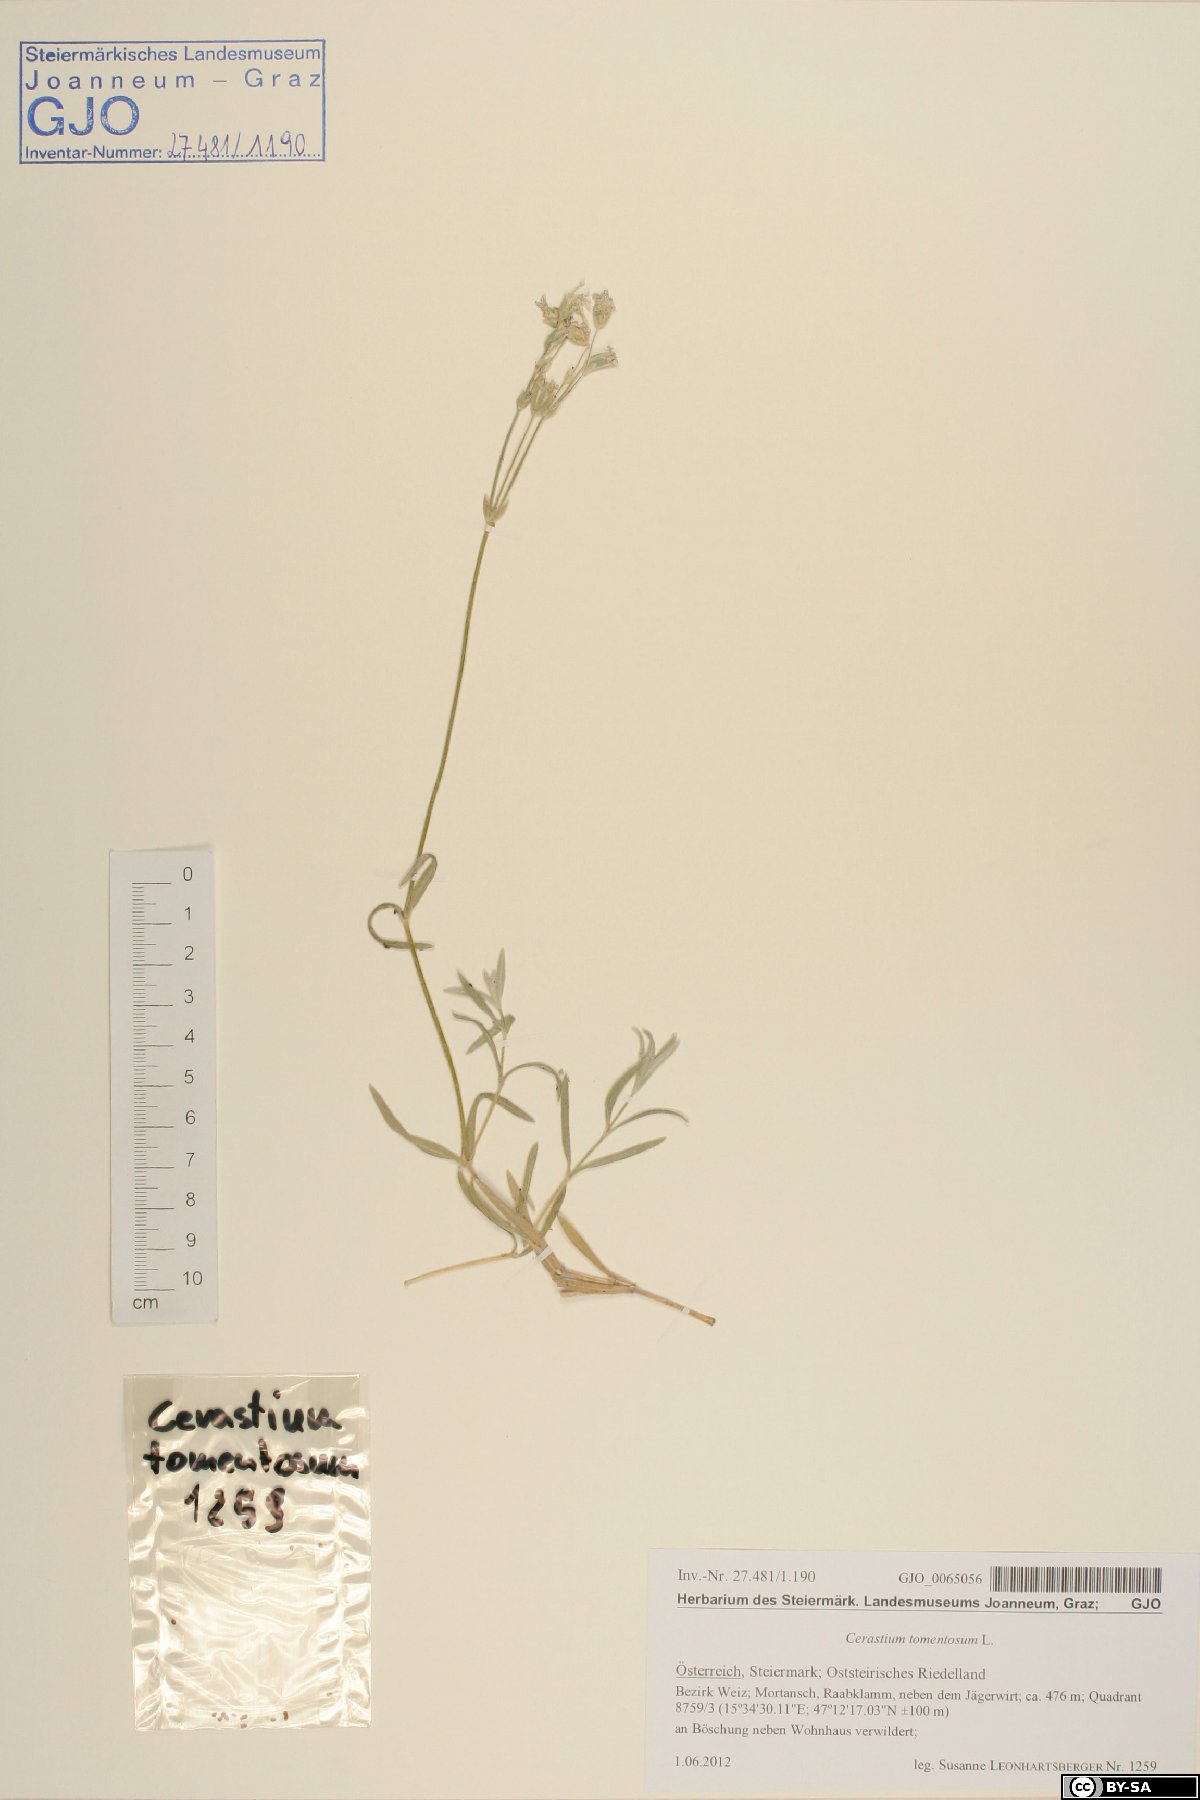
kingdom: Plantae
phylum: Tracheophyta
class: Magnoliopsida
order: Caryophyllales
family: Caryophyllaceae
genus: Cerastium
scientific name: Cerastium tomentosum
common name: Snow-in-summer
